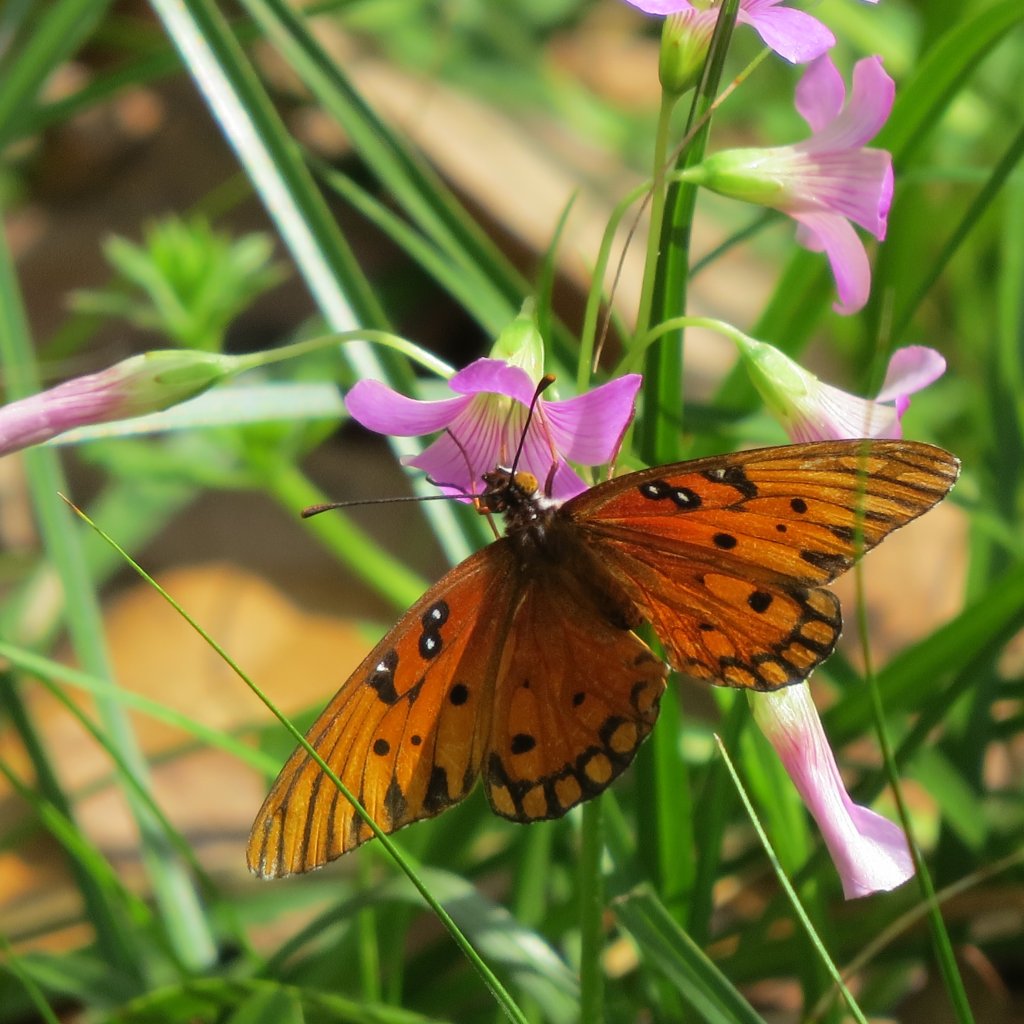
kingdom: Animalia
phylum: Arthropoda
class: Insecta
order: Lepidoptera
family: Nymphalidae
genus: Dione
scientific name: Dione vanillae
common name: Gulf Fritillary
